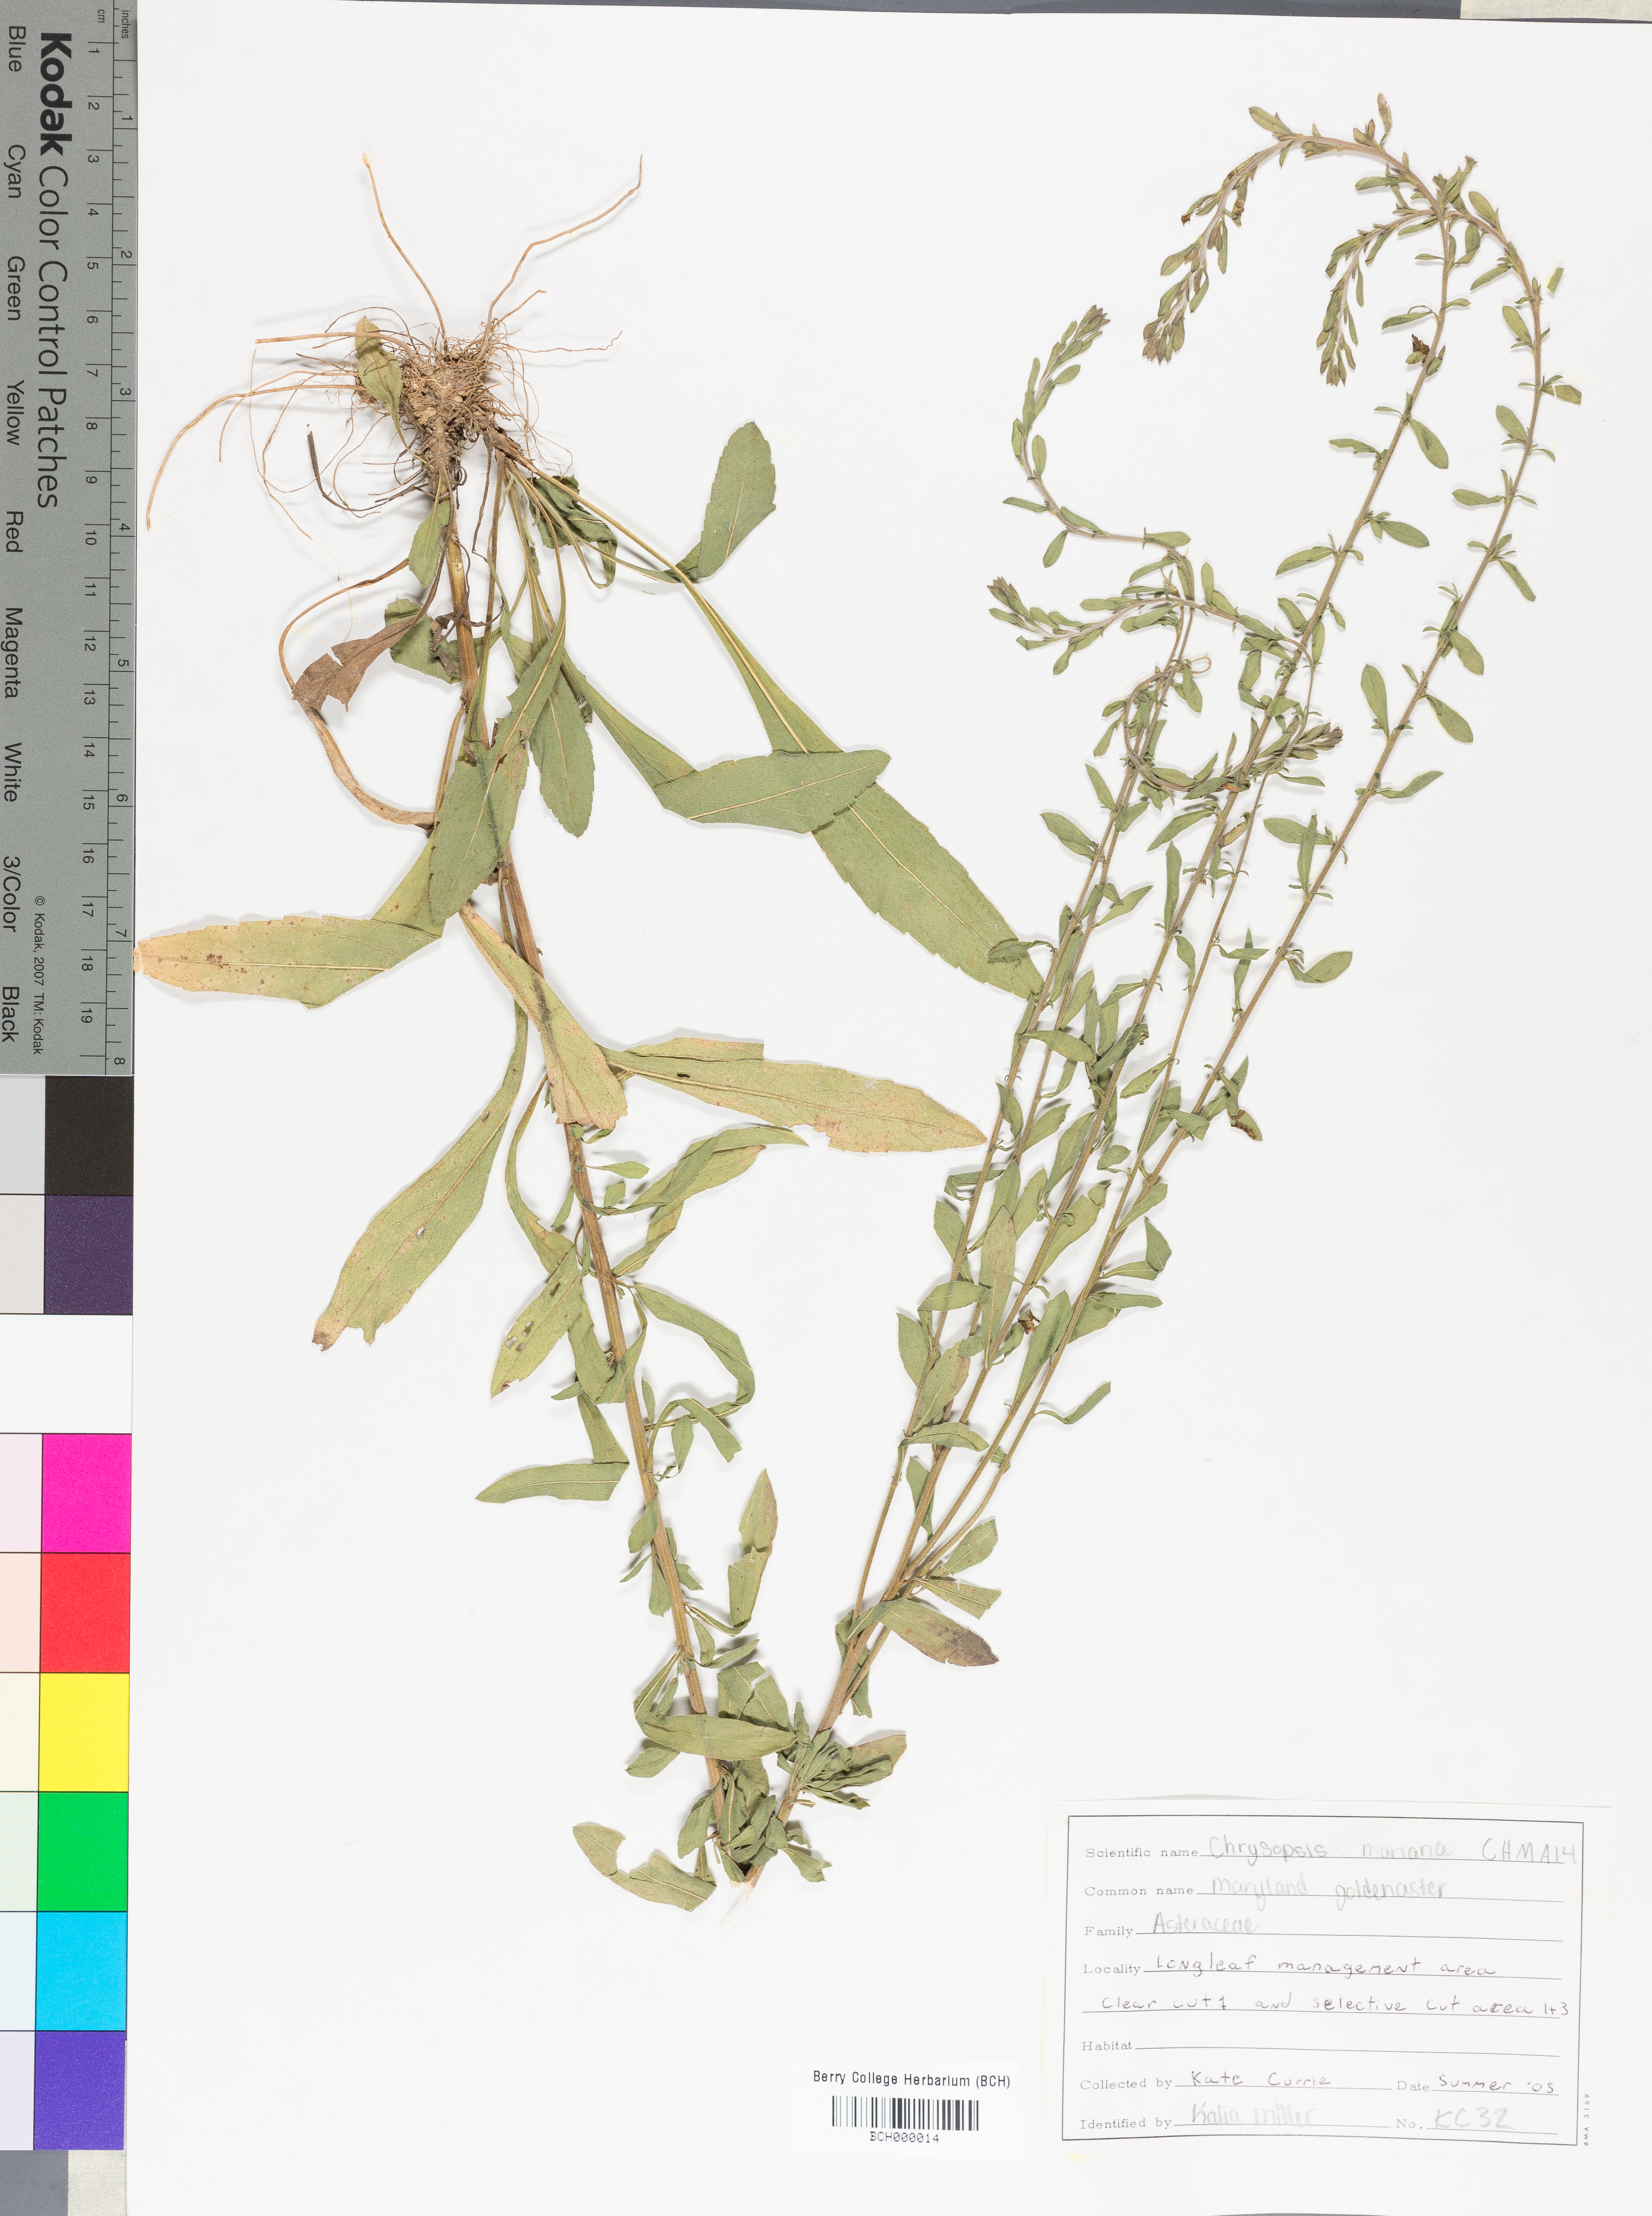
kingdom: Plantae
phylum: Tracheophyta
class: Magnoliopsida
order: Asterales
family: Asteraceae
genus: Chrysopsis
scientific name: Chrysopsis mariana
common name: Maryland golden-aster
